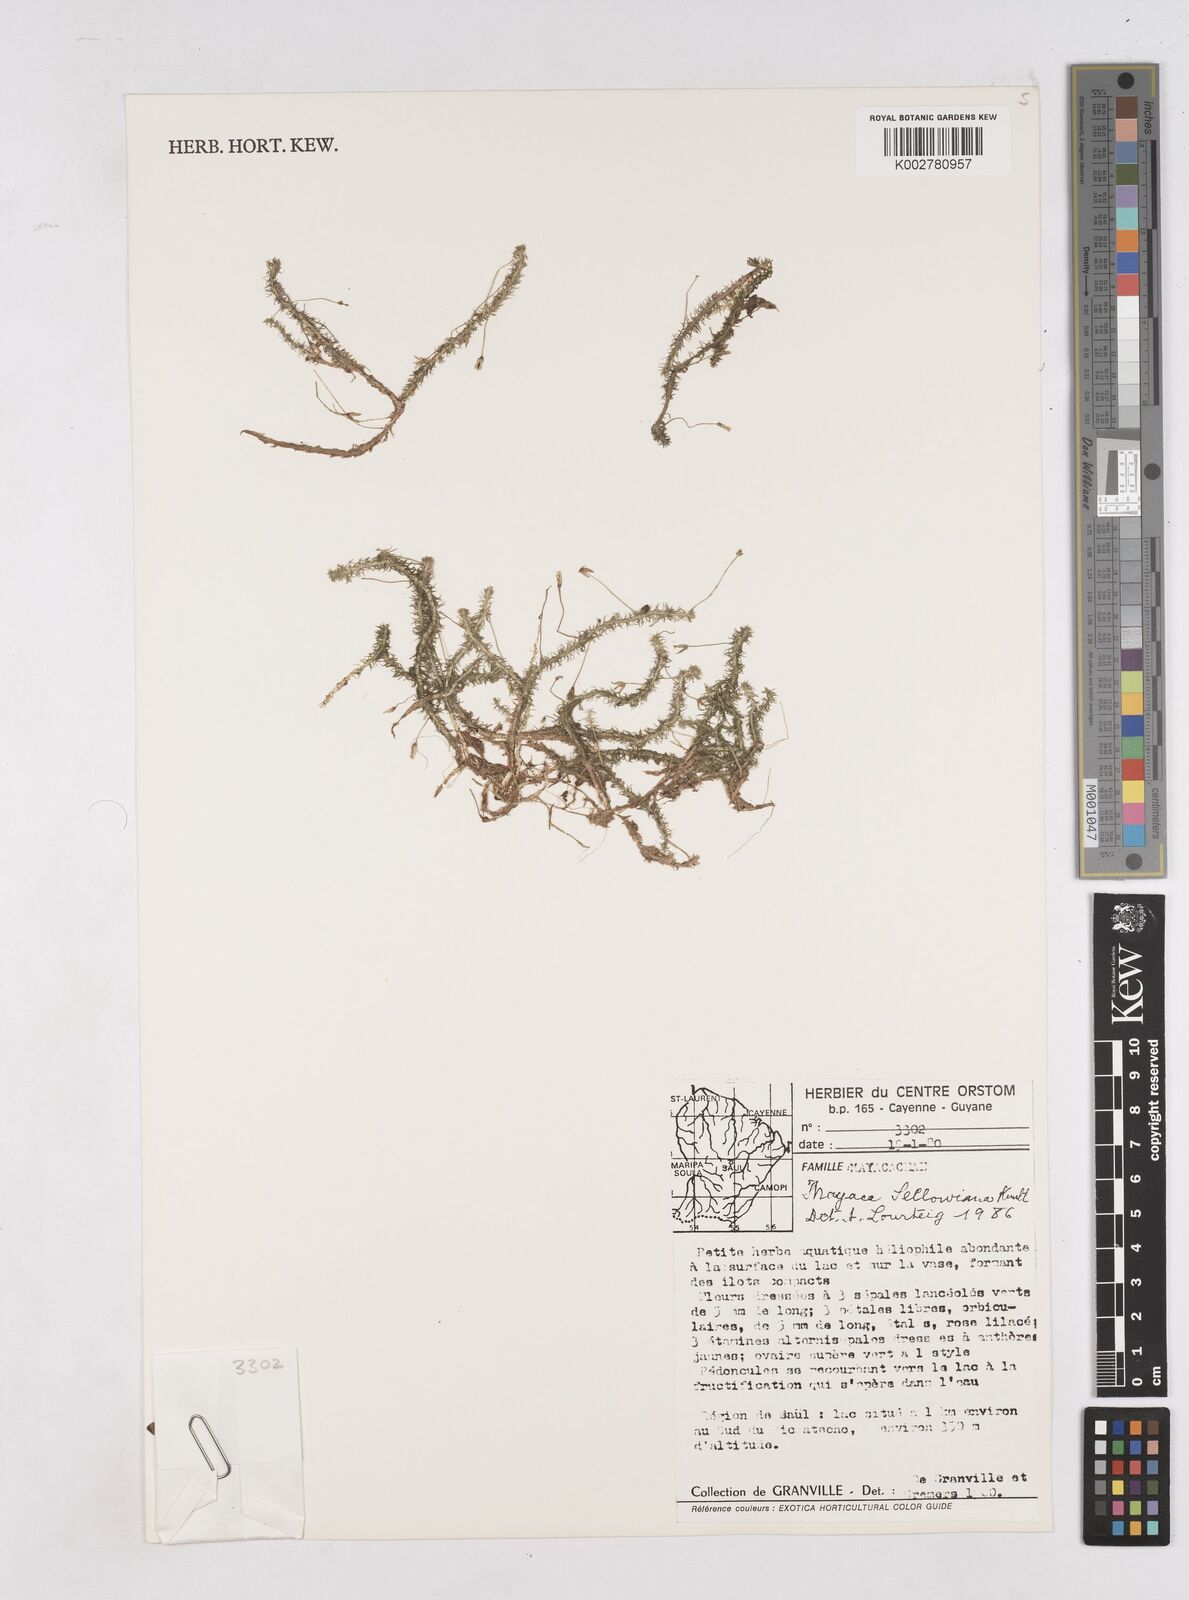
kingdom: Plantae
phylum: Tracheophyta
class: Liliopsida
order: Poales
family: Mayacaceae
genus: Mayaca
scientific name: Mayaca sellowiana
